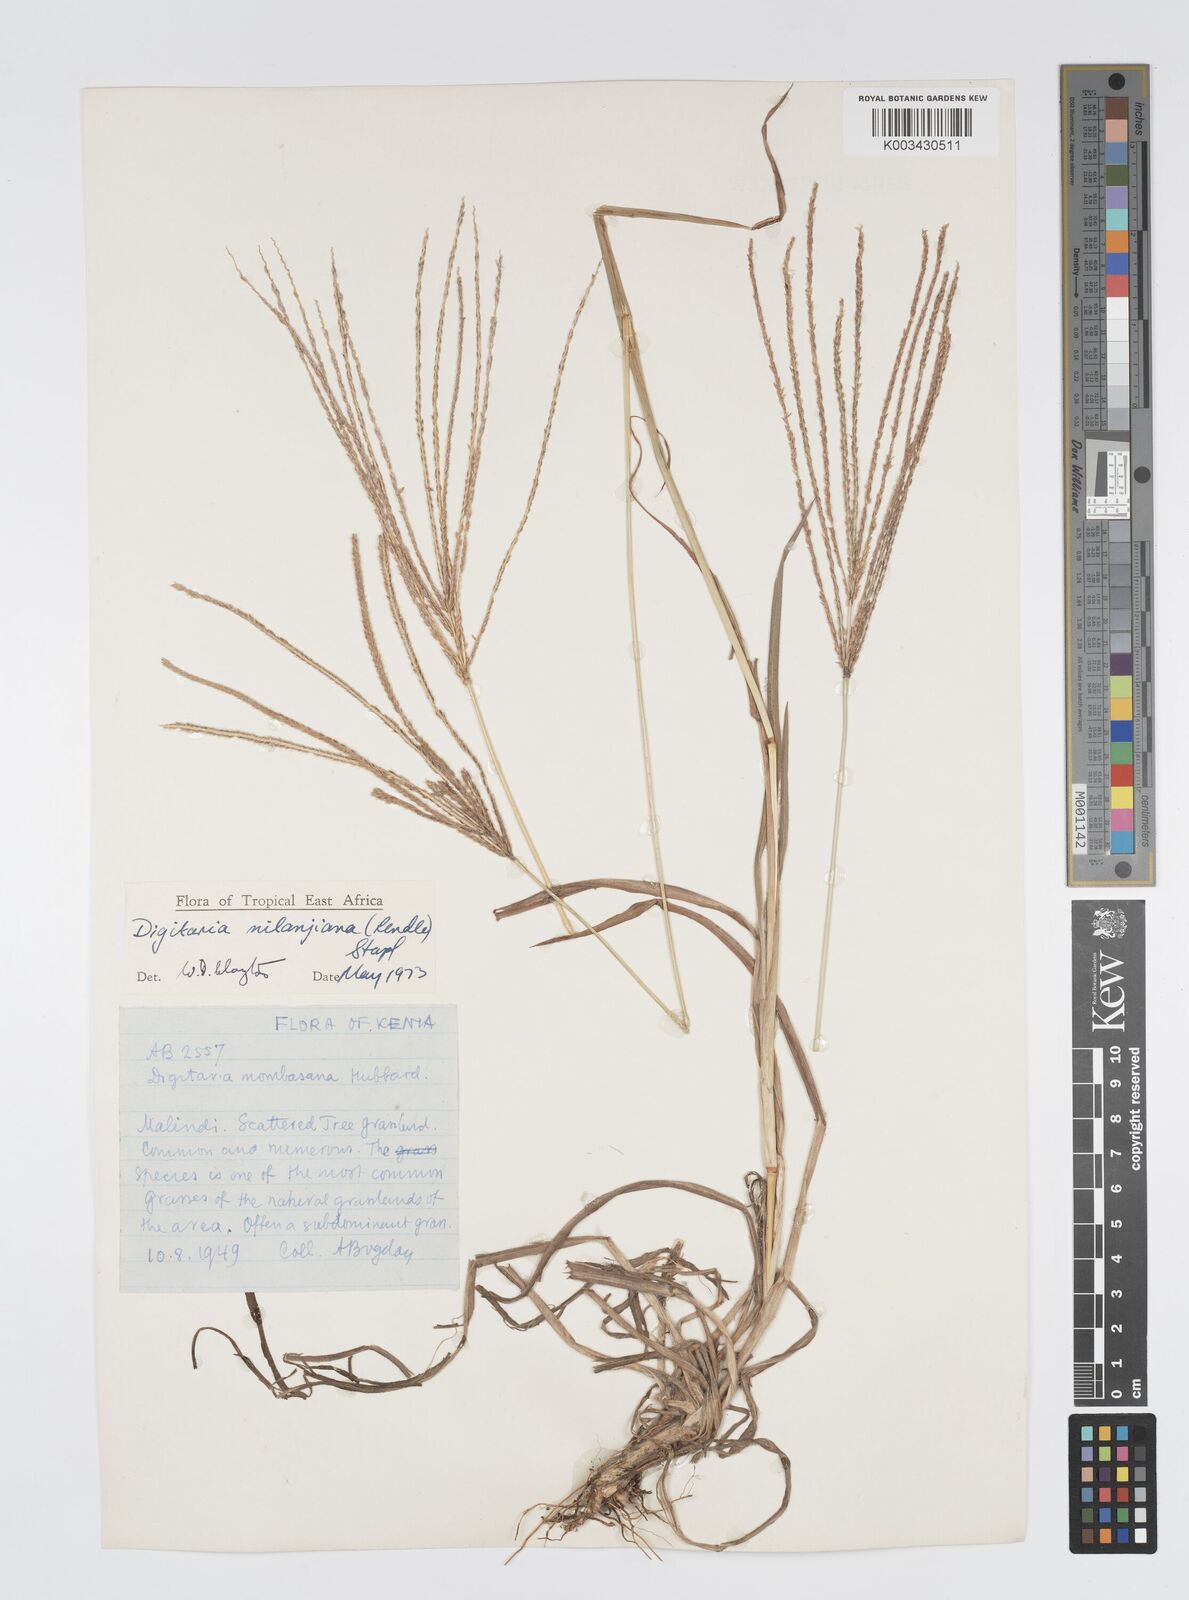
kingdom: Plantae
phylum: Tracheophyta
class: Liliopsida
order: Poales
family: Poaceae
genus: Digitaria
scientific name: Digitaria milanjiana
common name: Madagascar crabgrass
